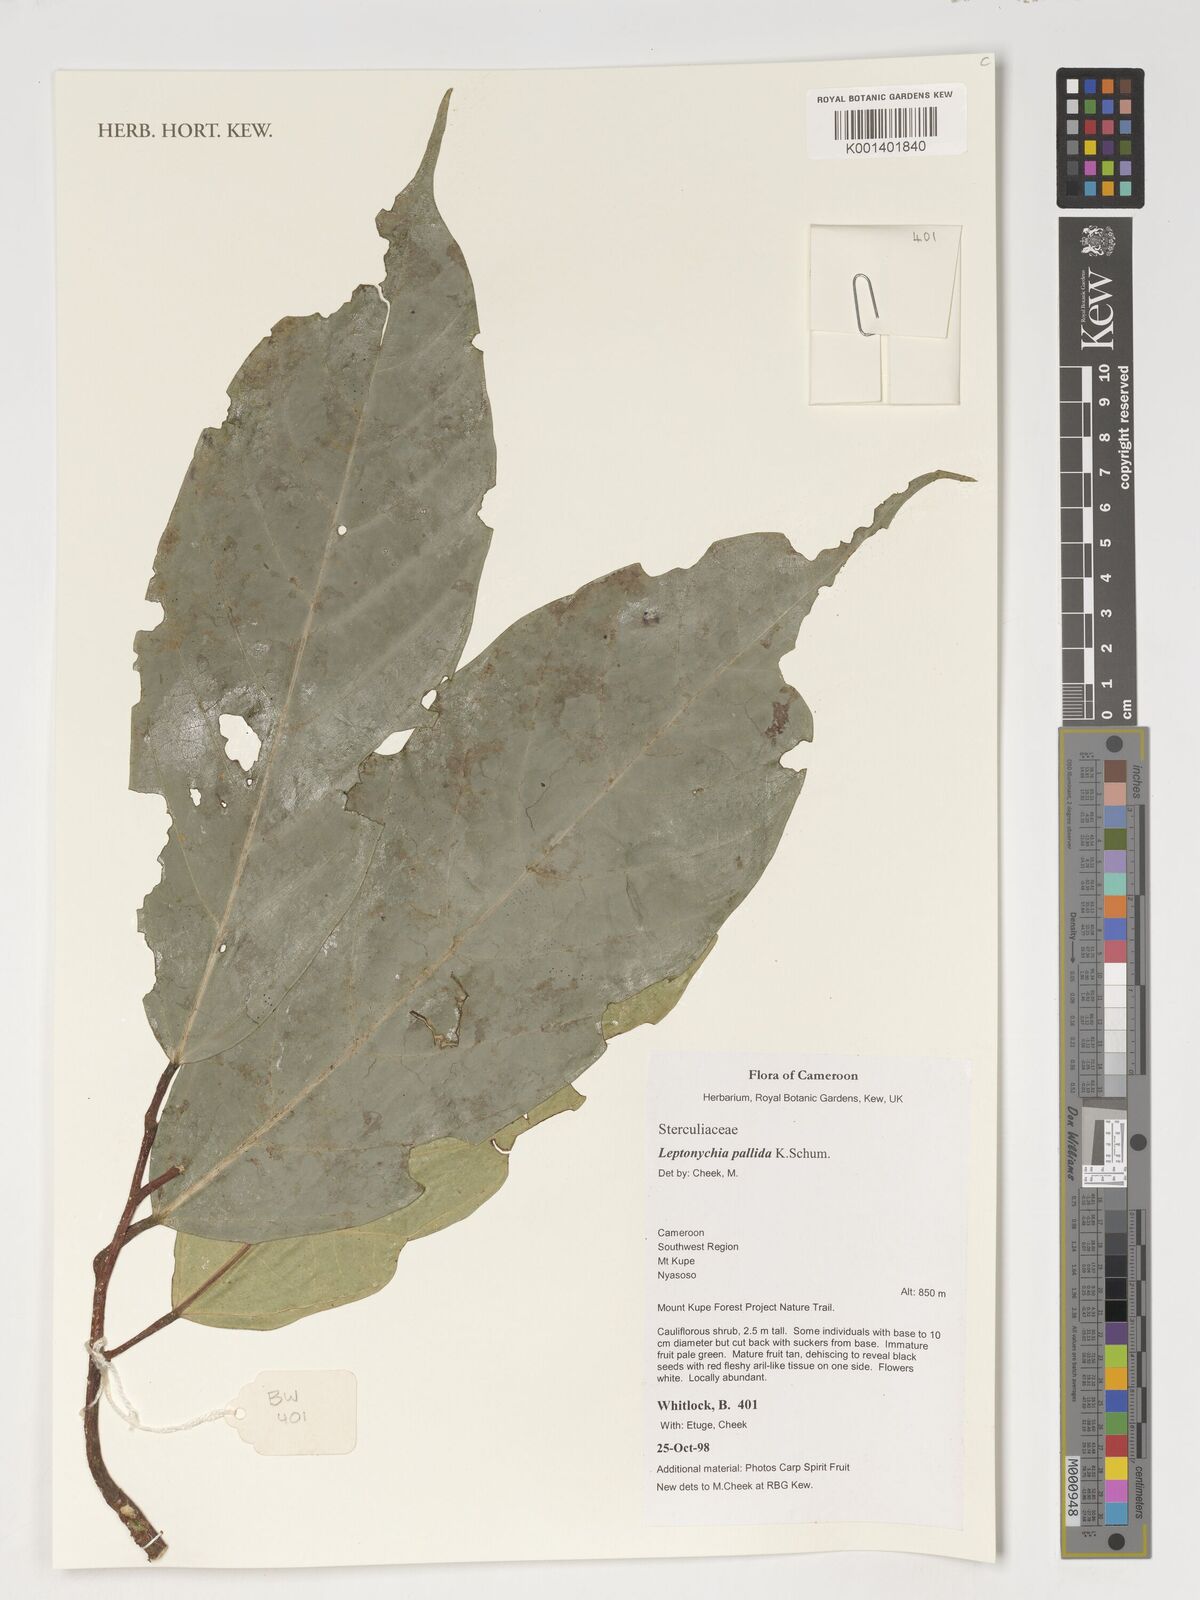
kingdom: Plantae
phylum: Tracheophyta
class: Magnoliopsida
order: Malvales
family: Malvaceae
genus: Leptonychia
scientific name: Leptonychia pallida
